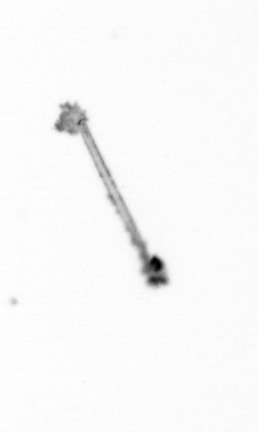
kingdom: Chromista
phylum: Ochrophyta
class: Bacillariophyceae
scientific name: Bacillariophyceae
